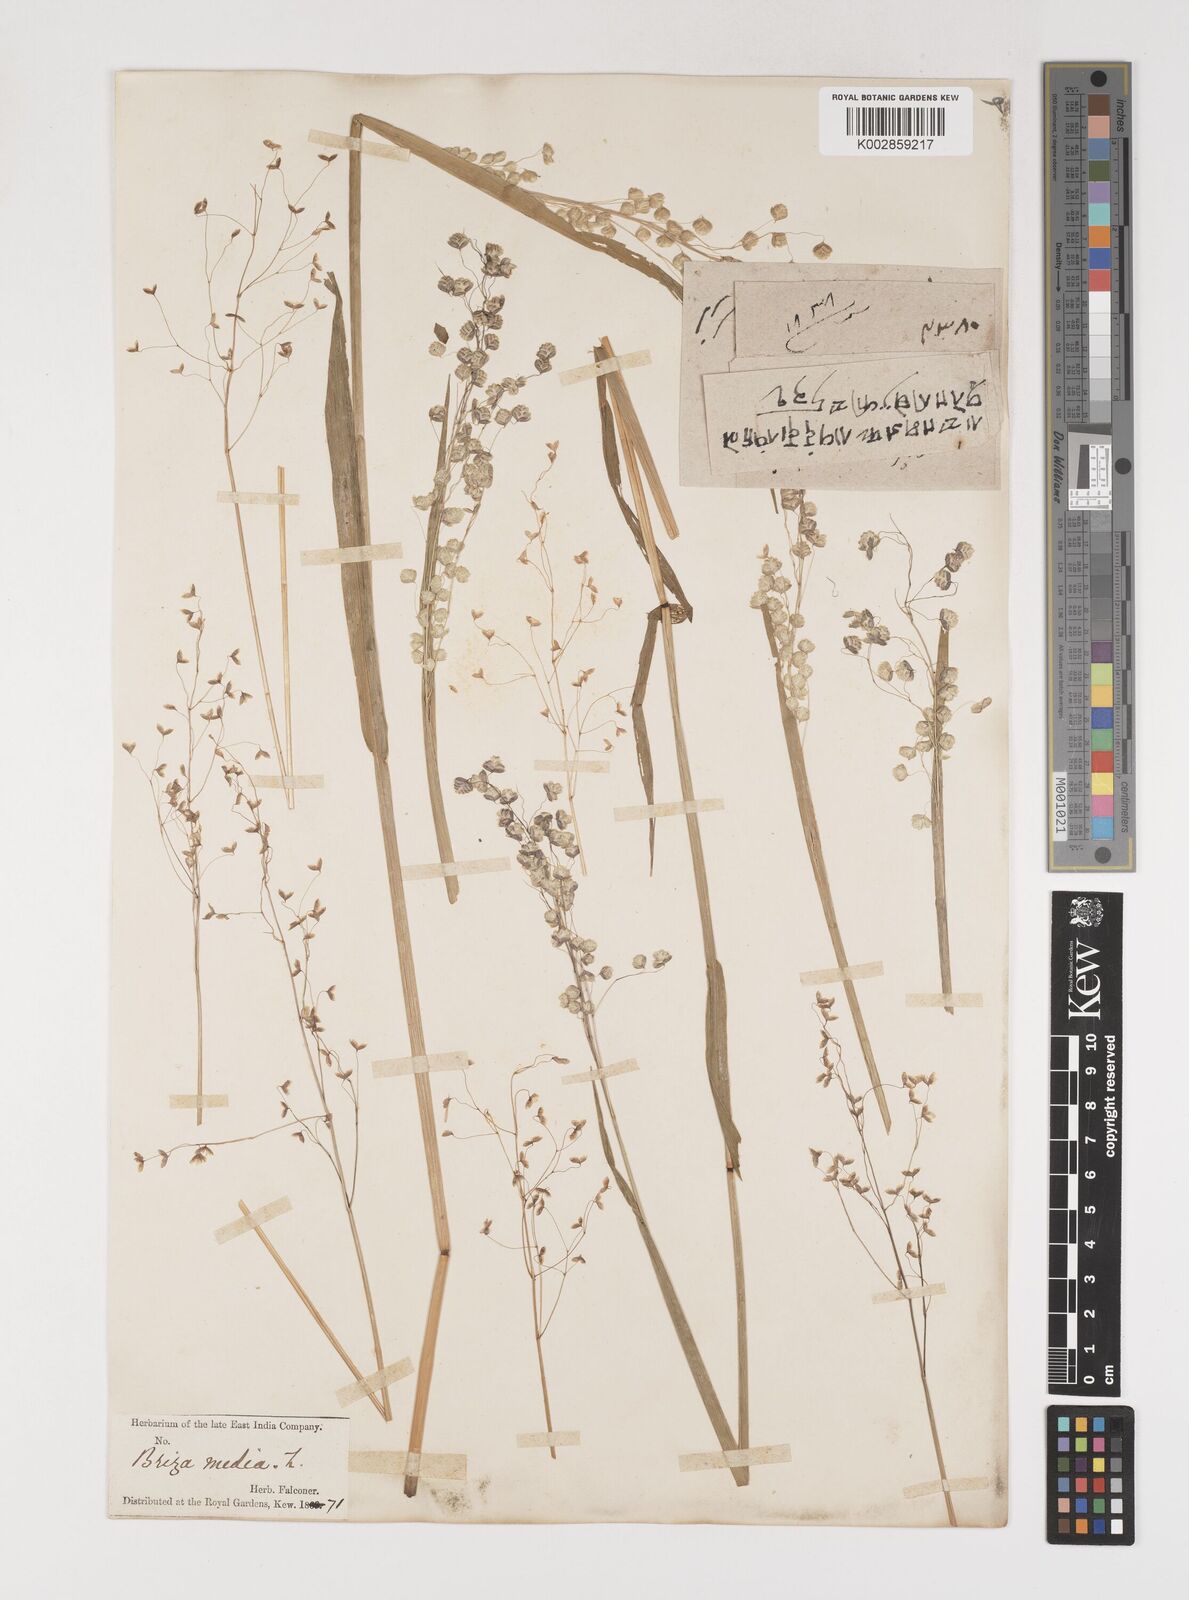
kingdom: Plantae
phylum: Tracheophyta
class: Liliopsida
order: Poales
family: Poaceae
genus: Briza
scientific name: Briza media
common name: Quaking grass
